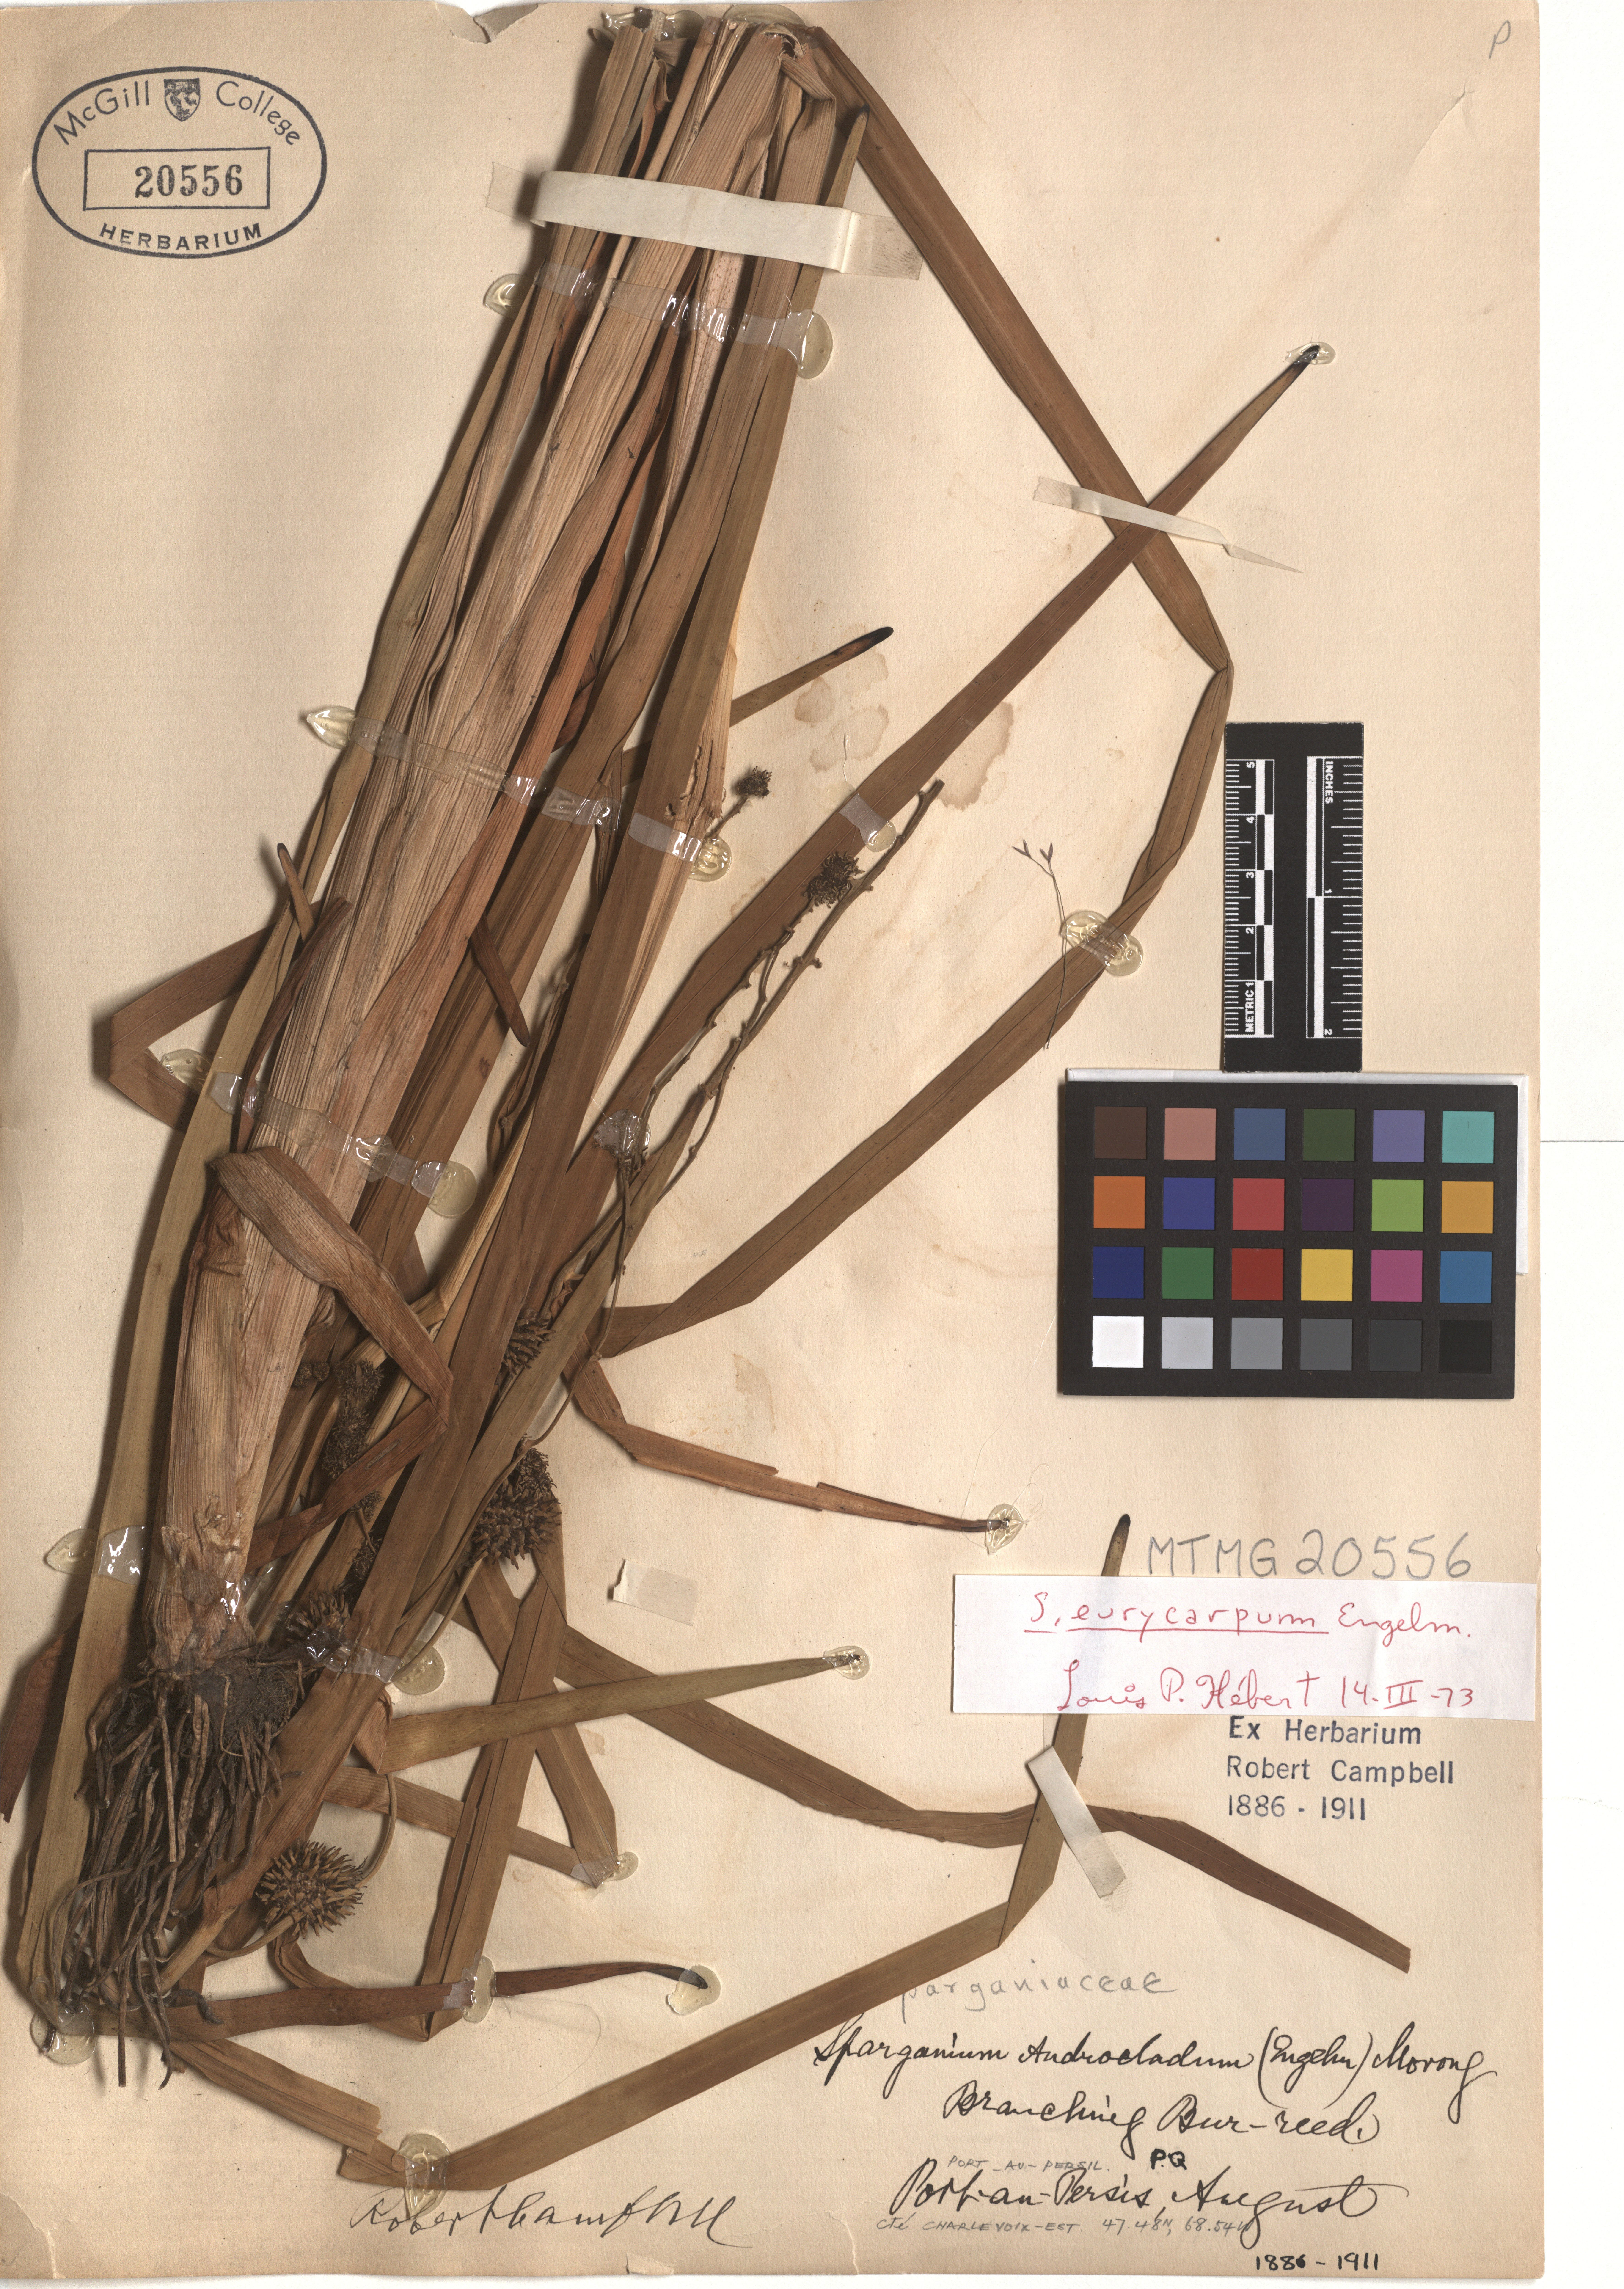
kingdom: Plantae
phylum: Tracheophyta
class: Liliopsida
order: Poales
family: Typhaceae
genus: Sparganium
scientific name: Sparganium eurycarpum
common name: Broad-fruited burreed
